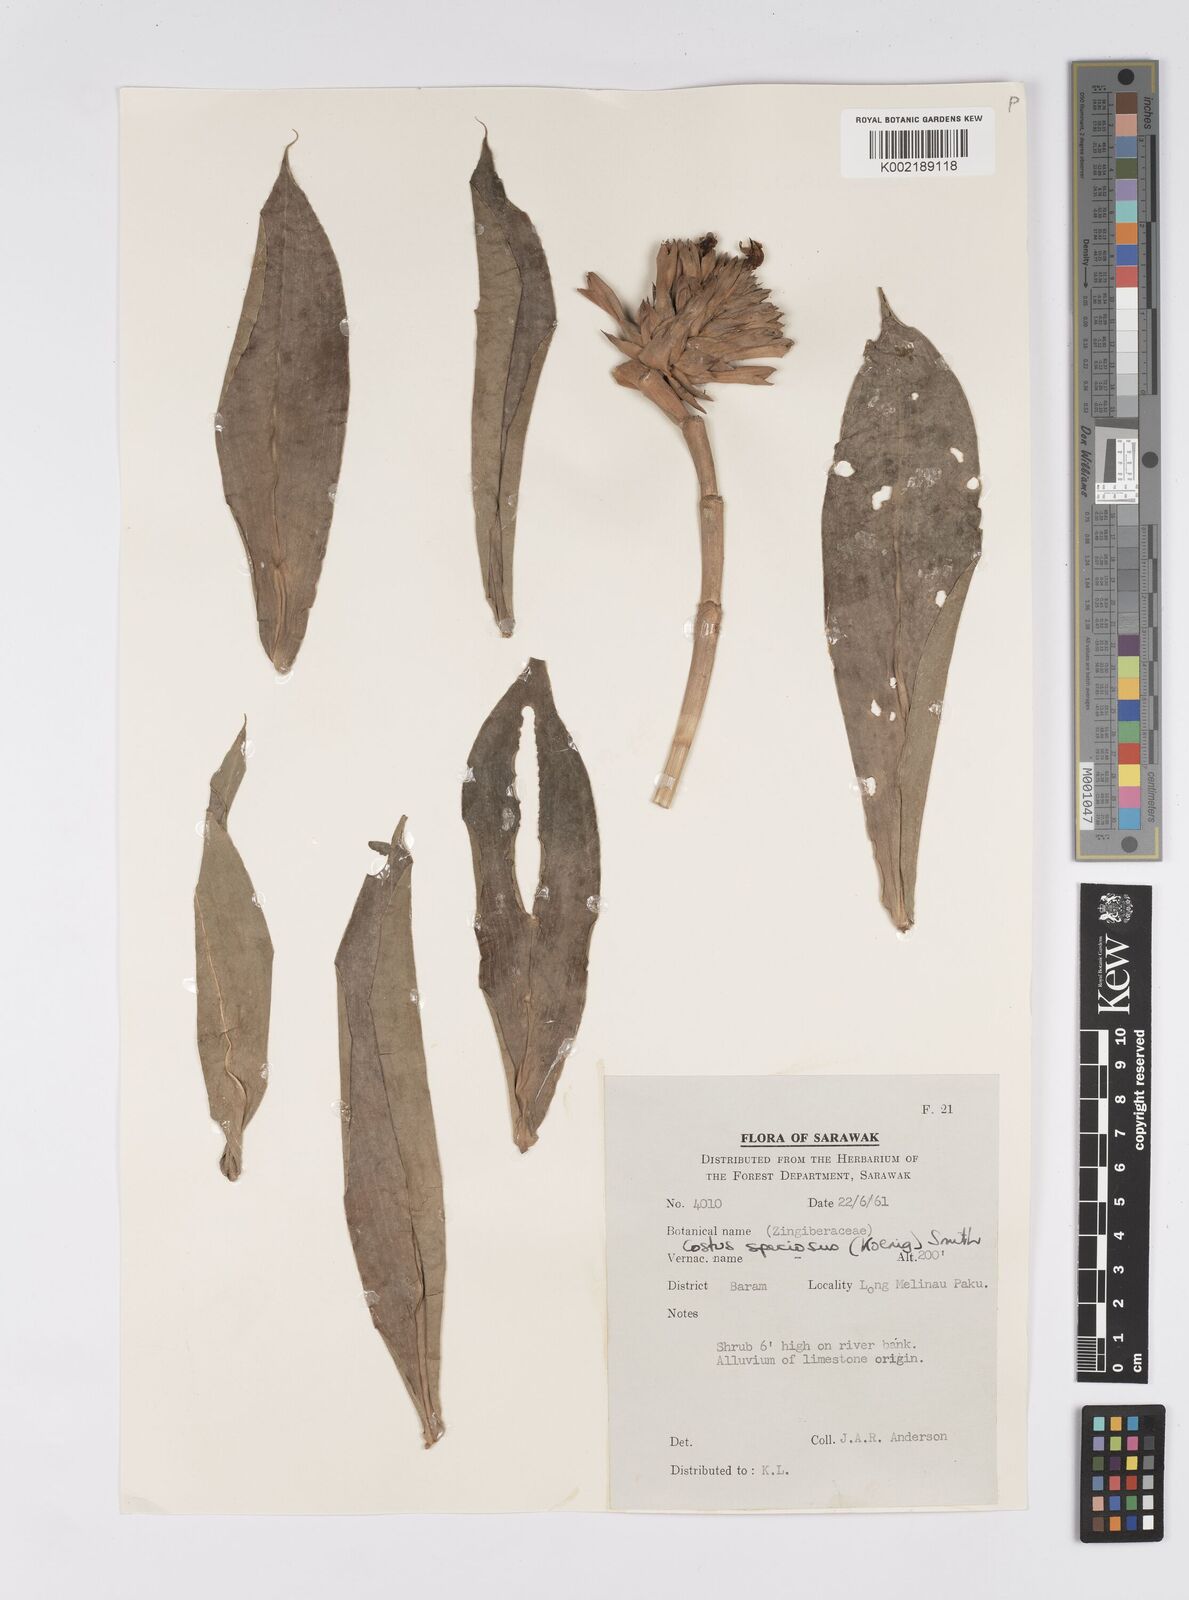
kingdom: Plantae
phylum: Tracheophyta
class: Liliopsida
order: Zingiberales
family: Costaceae
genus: Hellenia
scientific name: Hellenia speciosa
